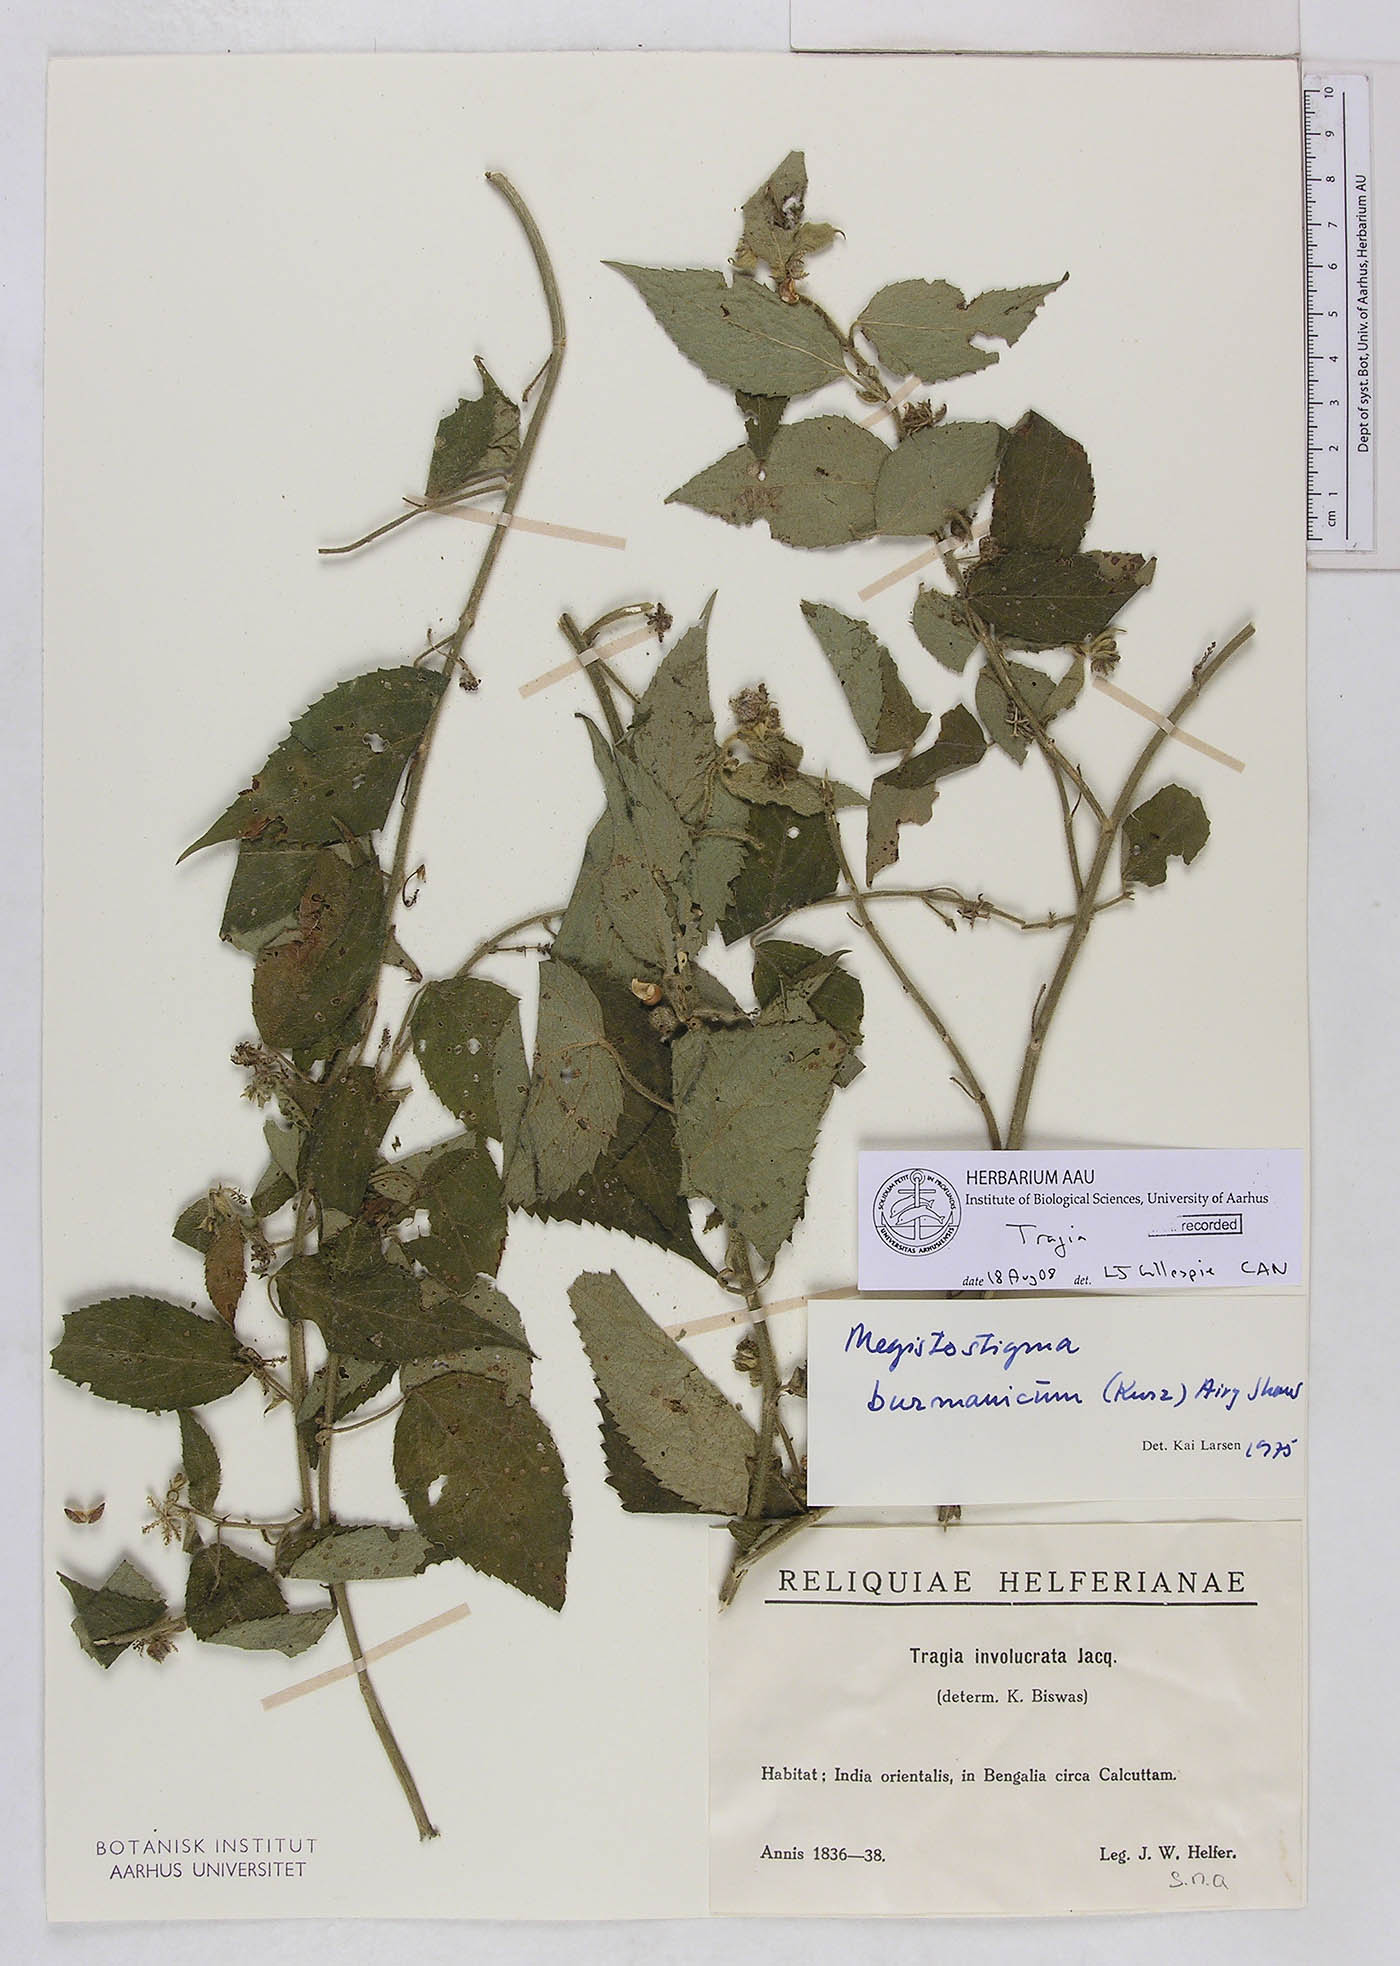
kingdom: Plantae
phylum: Tracheophyta
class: Magnoliopsida
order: Malpighiales
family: Euphorbiaceae
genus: Tragia
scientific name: Tragia
